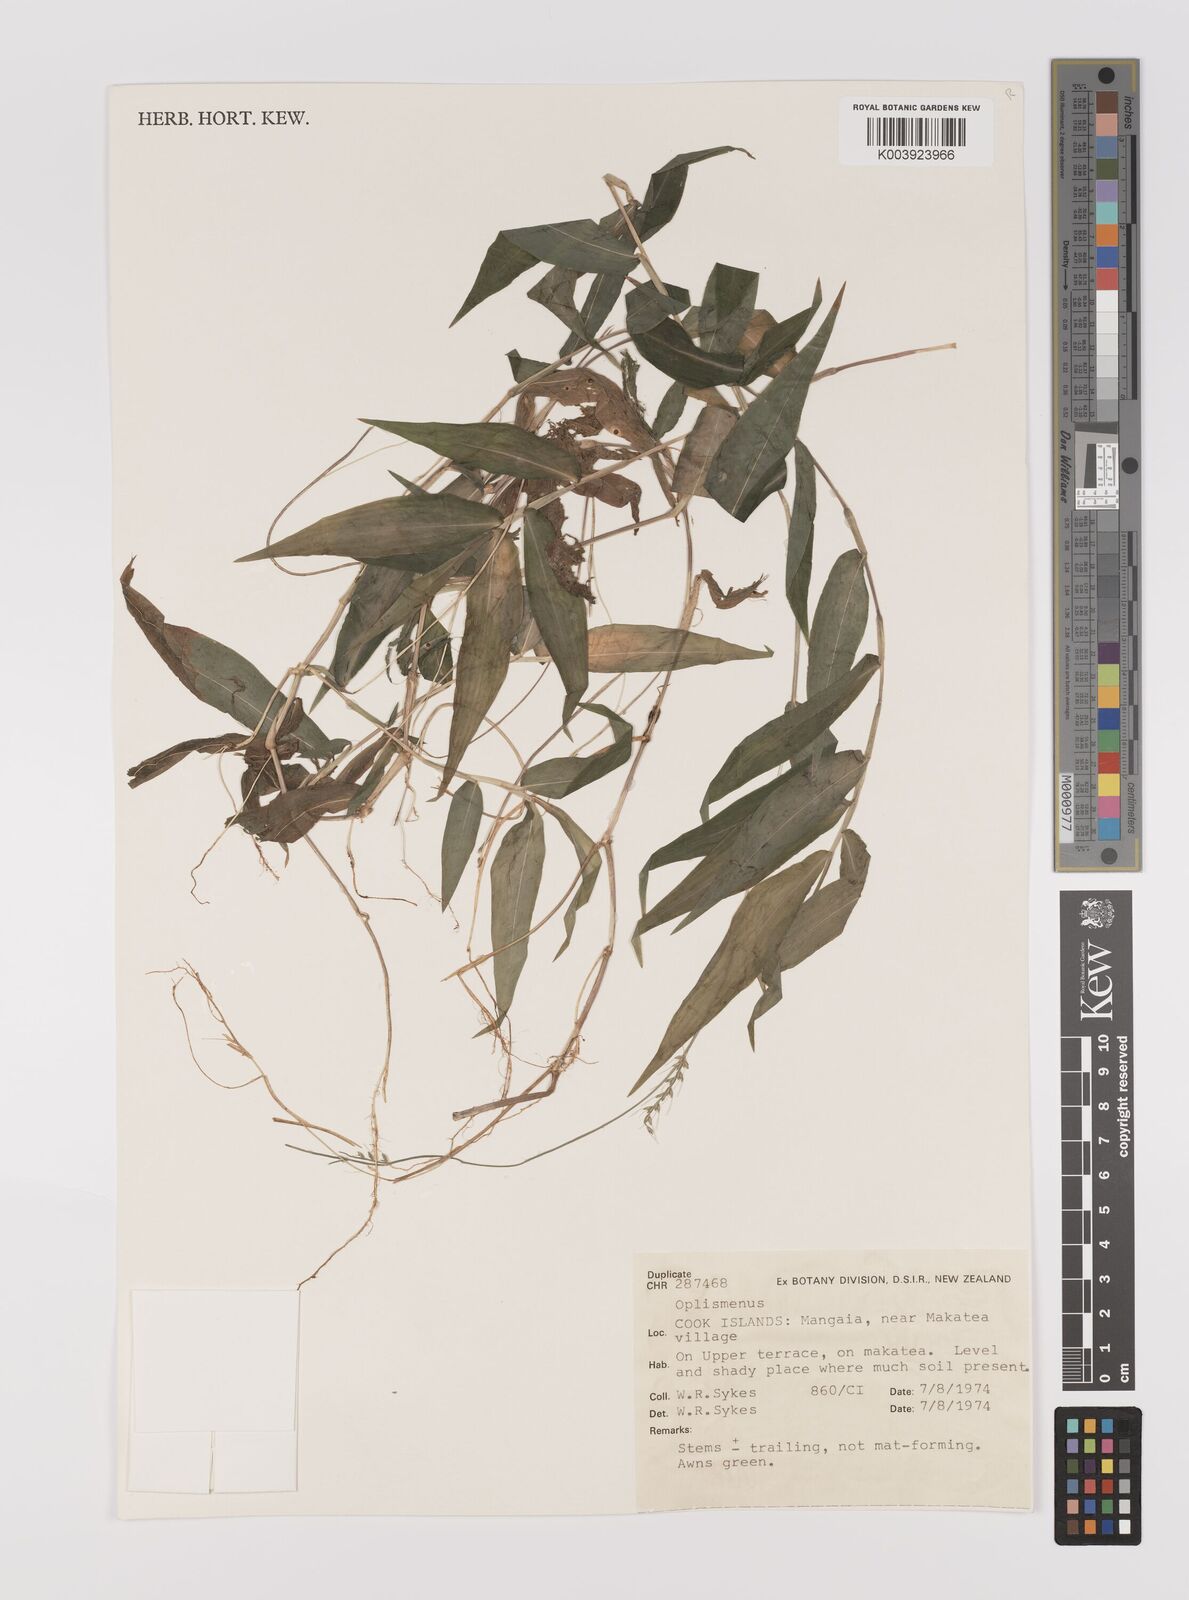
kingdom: Plantae
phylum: Tracheophyta
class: Liliopsida
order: Poales
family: Poaceae
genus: Oplismenus
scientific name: Oplismenus compositus
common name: Running mountain grass
